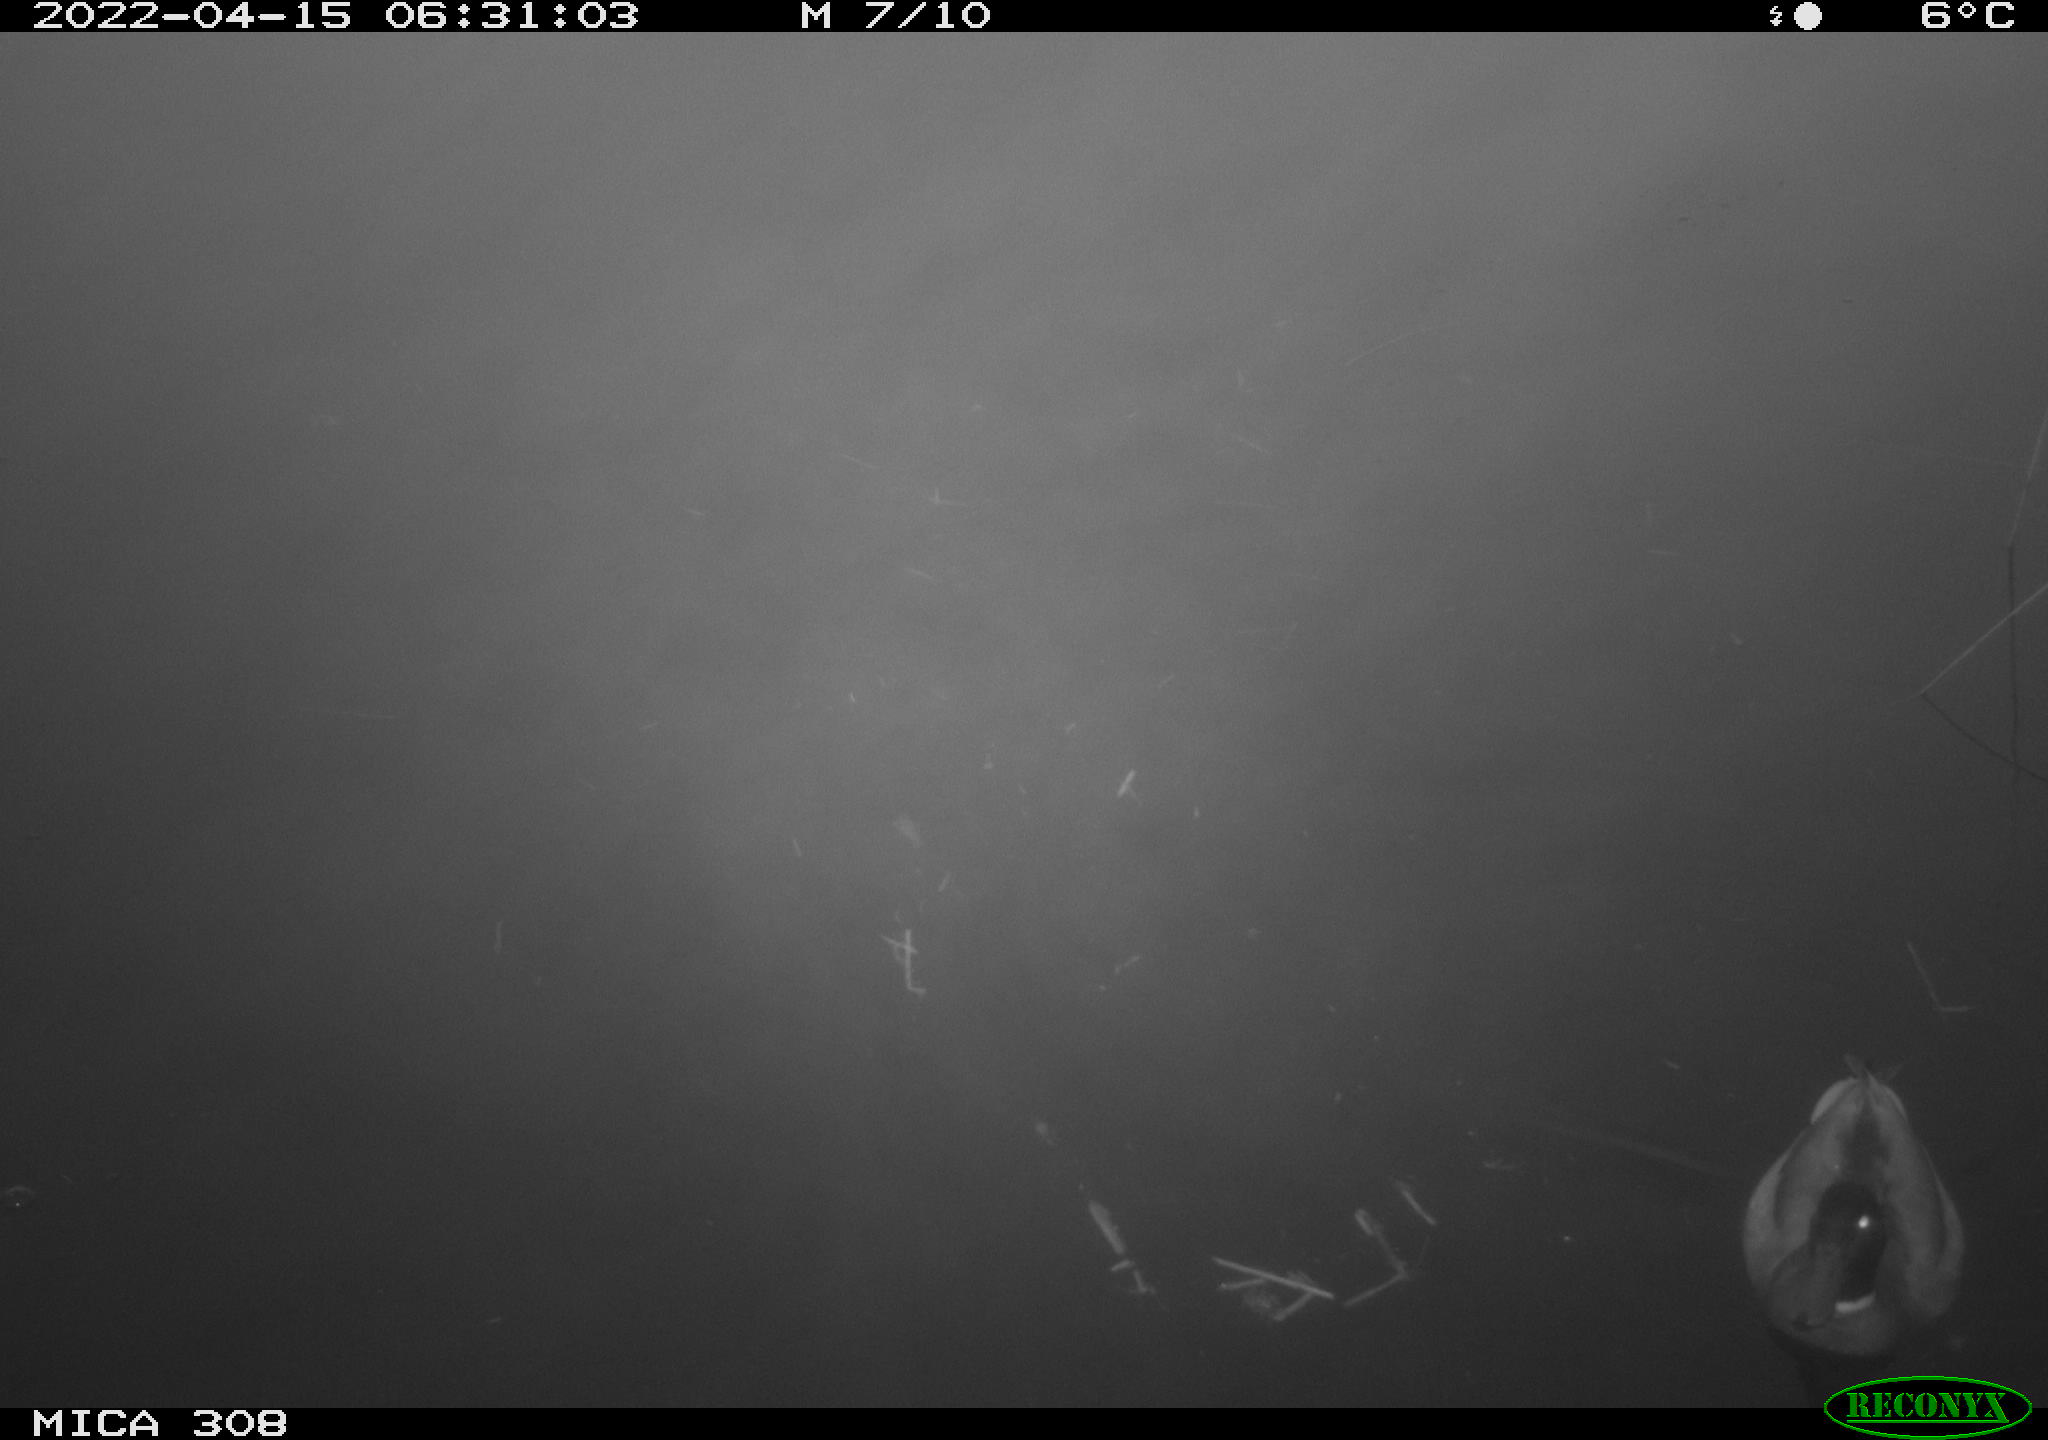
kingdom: Animalia
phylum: Chordata
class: Aves
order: Anseriformes
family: Anatidae
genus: Anas
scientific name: Anas platyrhynchos
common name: Mallard
